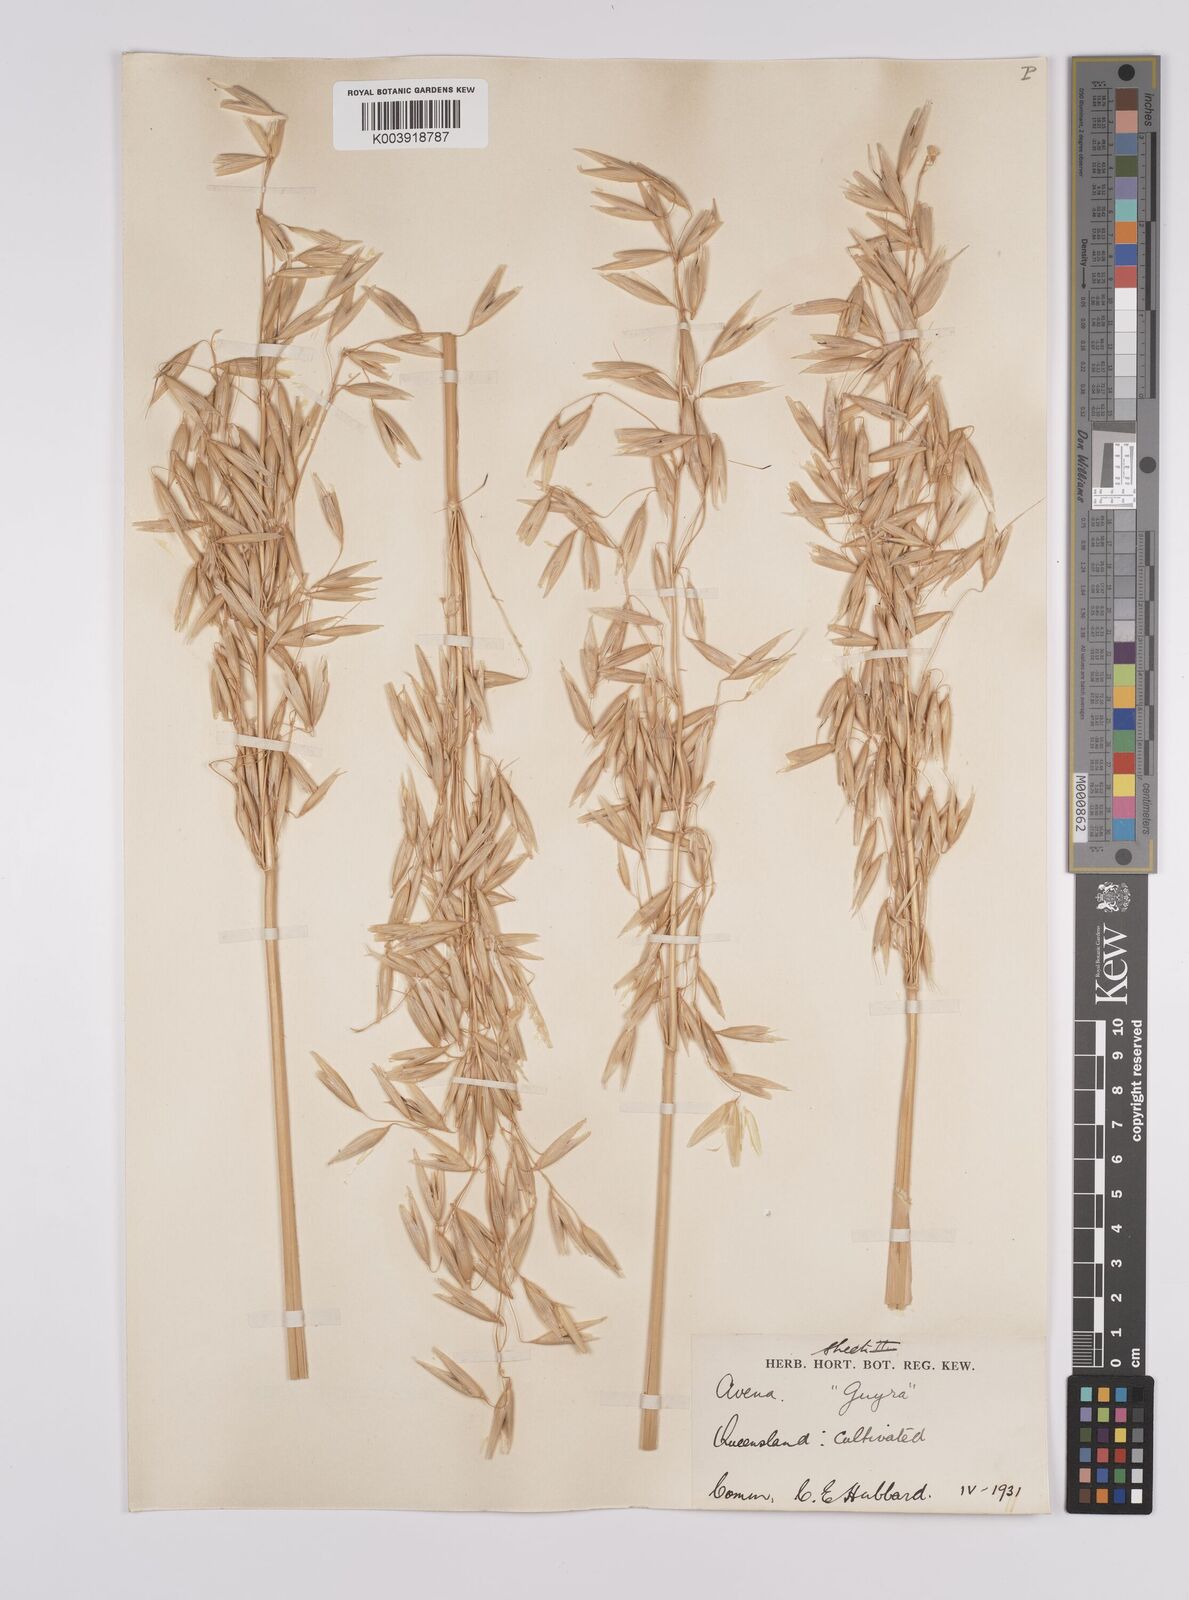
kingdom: Plantae
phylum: Tracheophyta
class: Liliopsida
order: Poales
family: Poaceae
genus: Avena
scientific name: Avena sativa
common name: Oat
